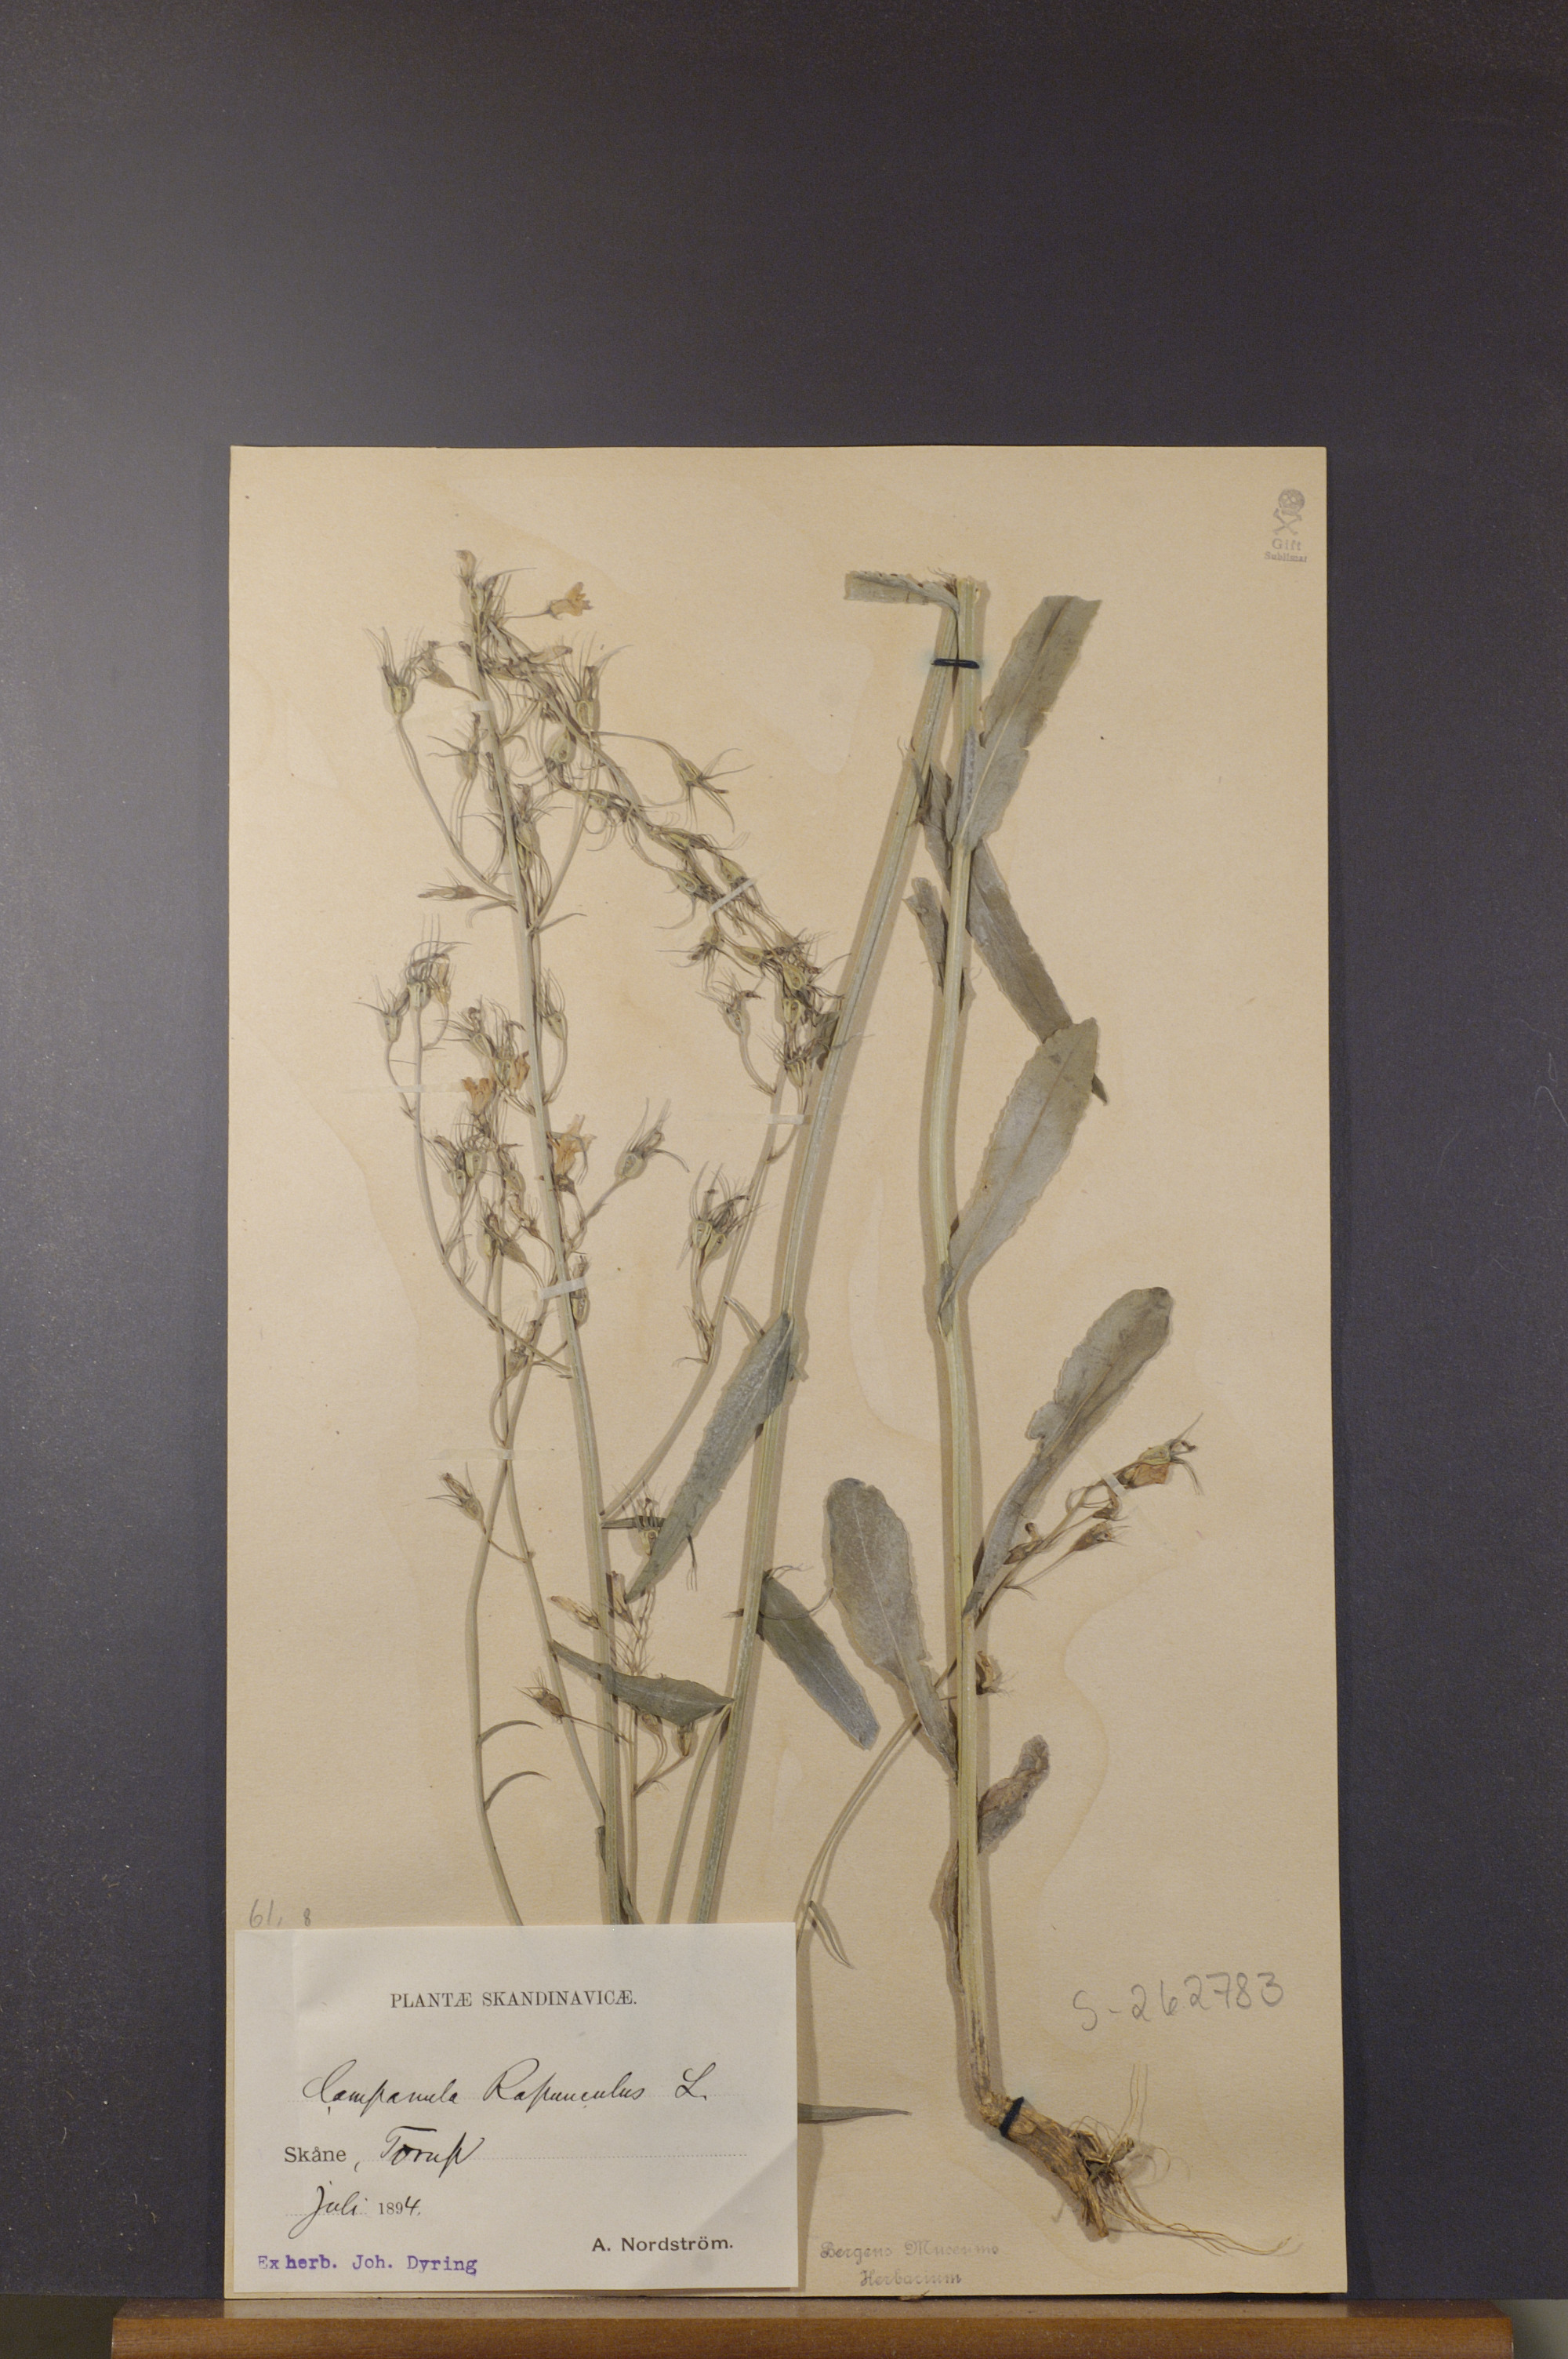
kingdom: Plantae
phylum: Tracheophyta
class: Magnoliopsida
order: Asterales
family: Campanulaceae
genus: Campanula
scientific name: Campanula rapunculus
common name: Rampion bellflower
